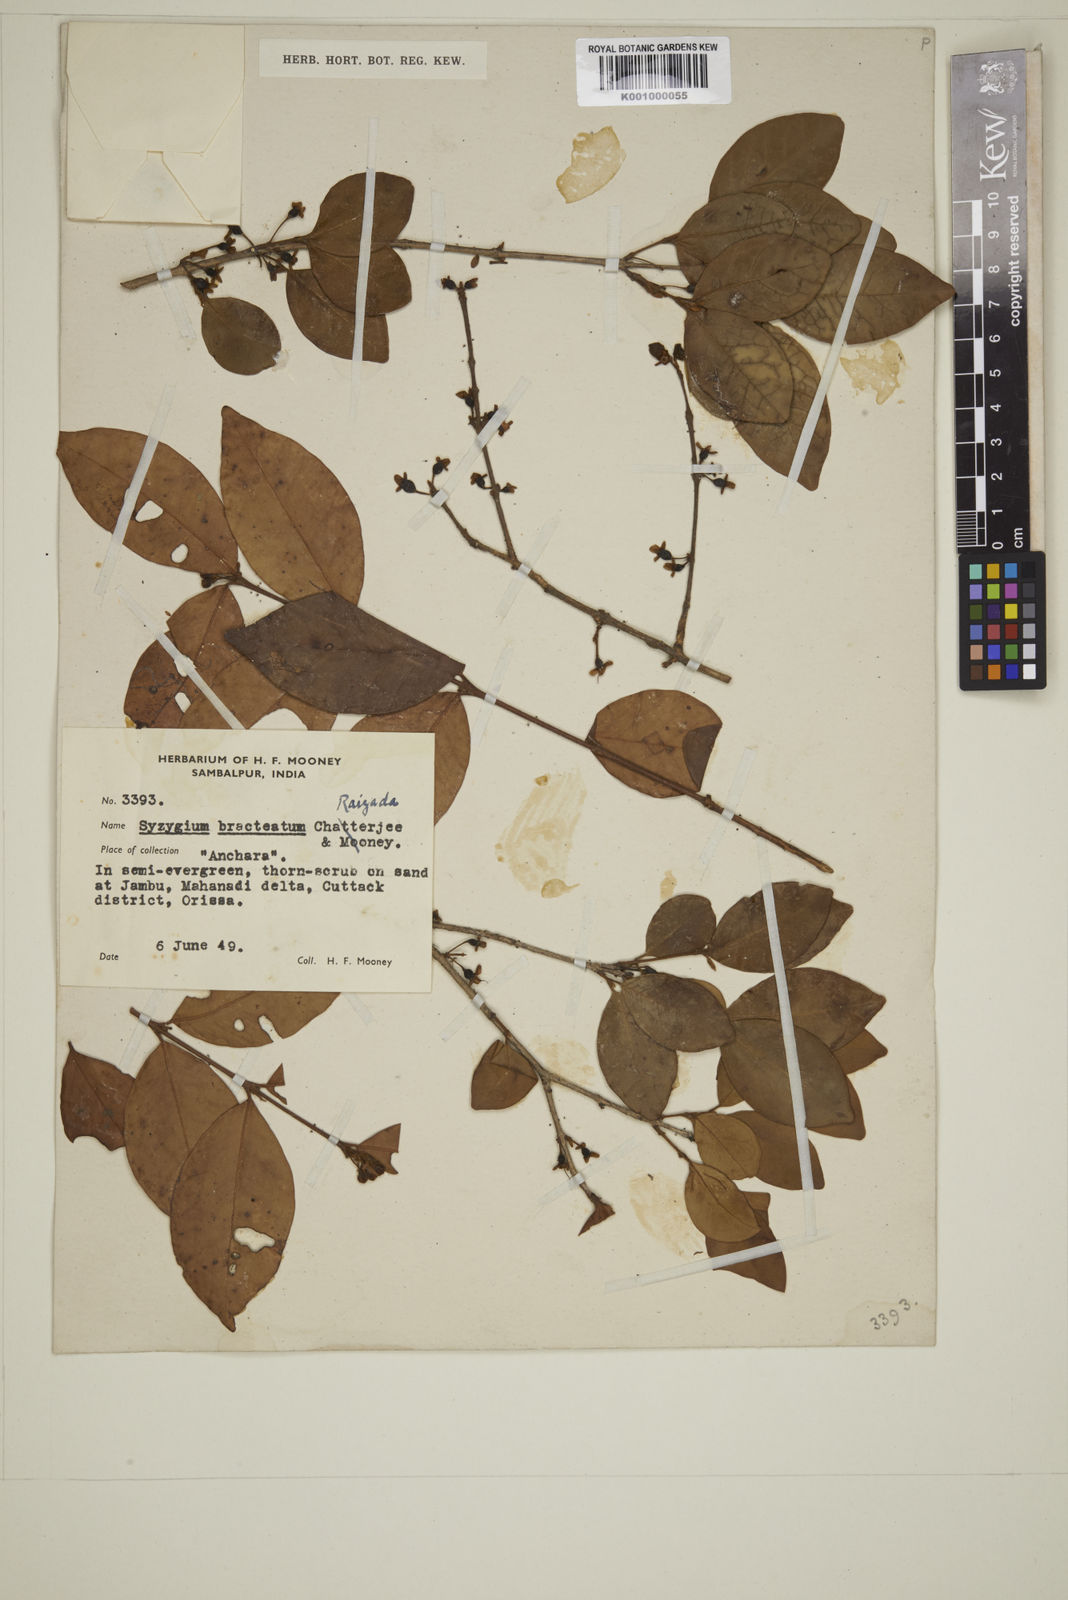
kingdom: Plantae
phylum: Tracheophyta
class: Magnoliopsida
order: Myrtales
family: Myrtaceae
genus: Myrcia
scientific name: Myrcia bracteata
